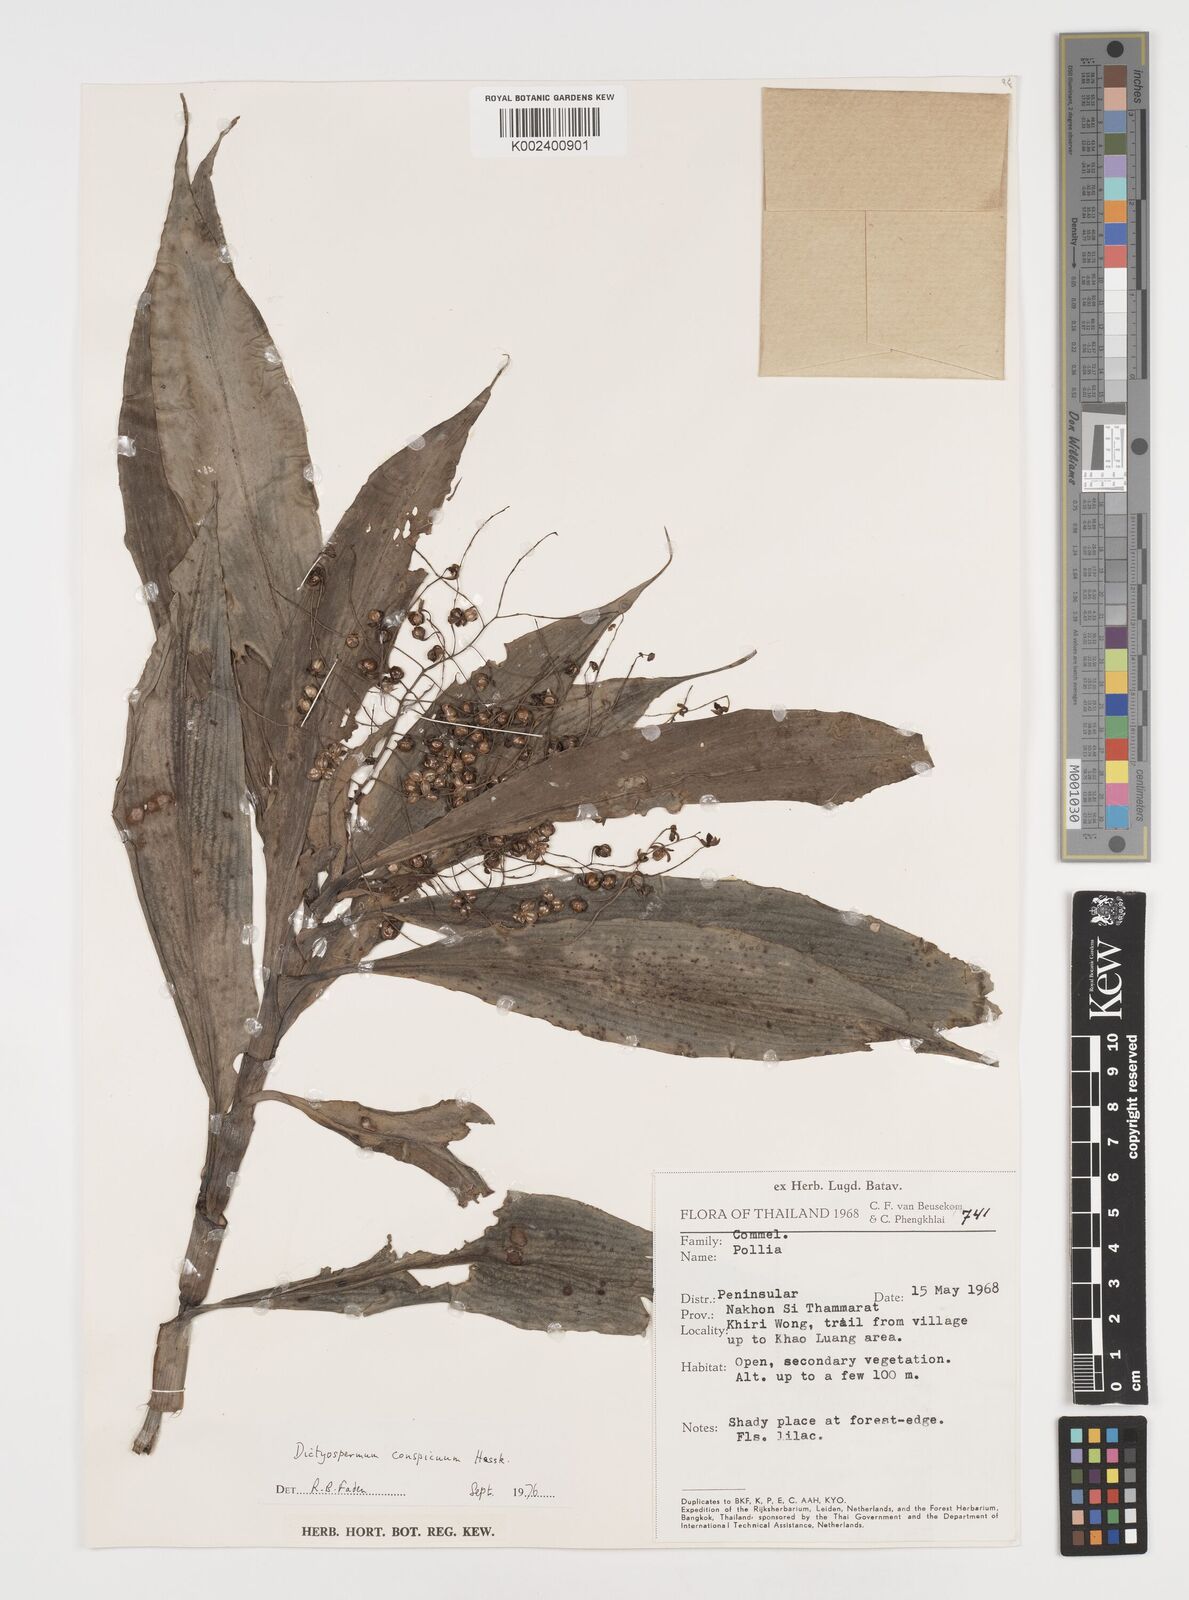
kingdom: Plantae
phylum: Tracheophyta
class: Liliopsida
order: Commelinales
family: Commelinaceae
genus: Dictyospermum
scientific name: Dictyospermum conspicuum
